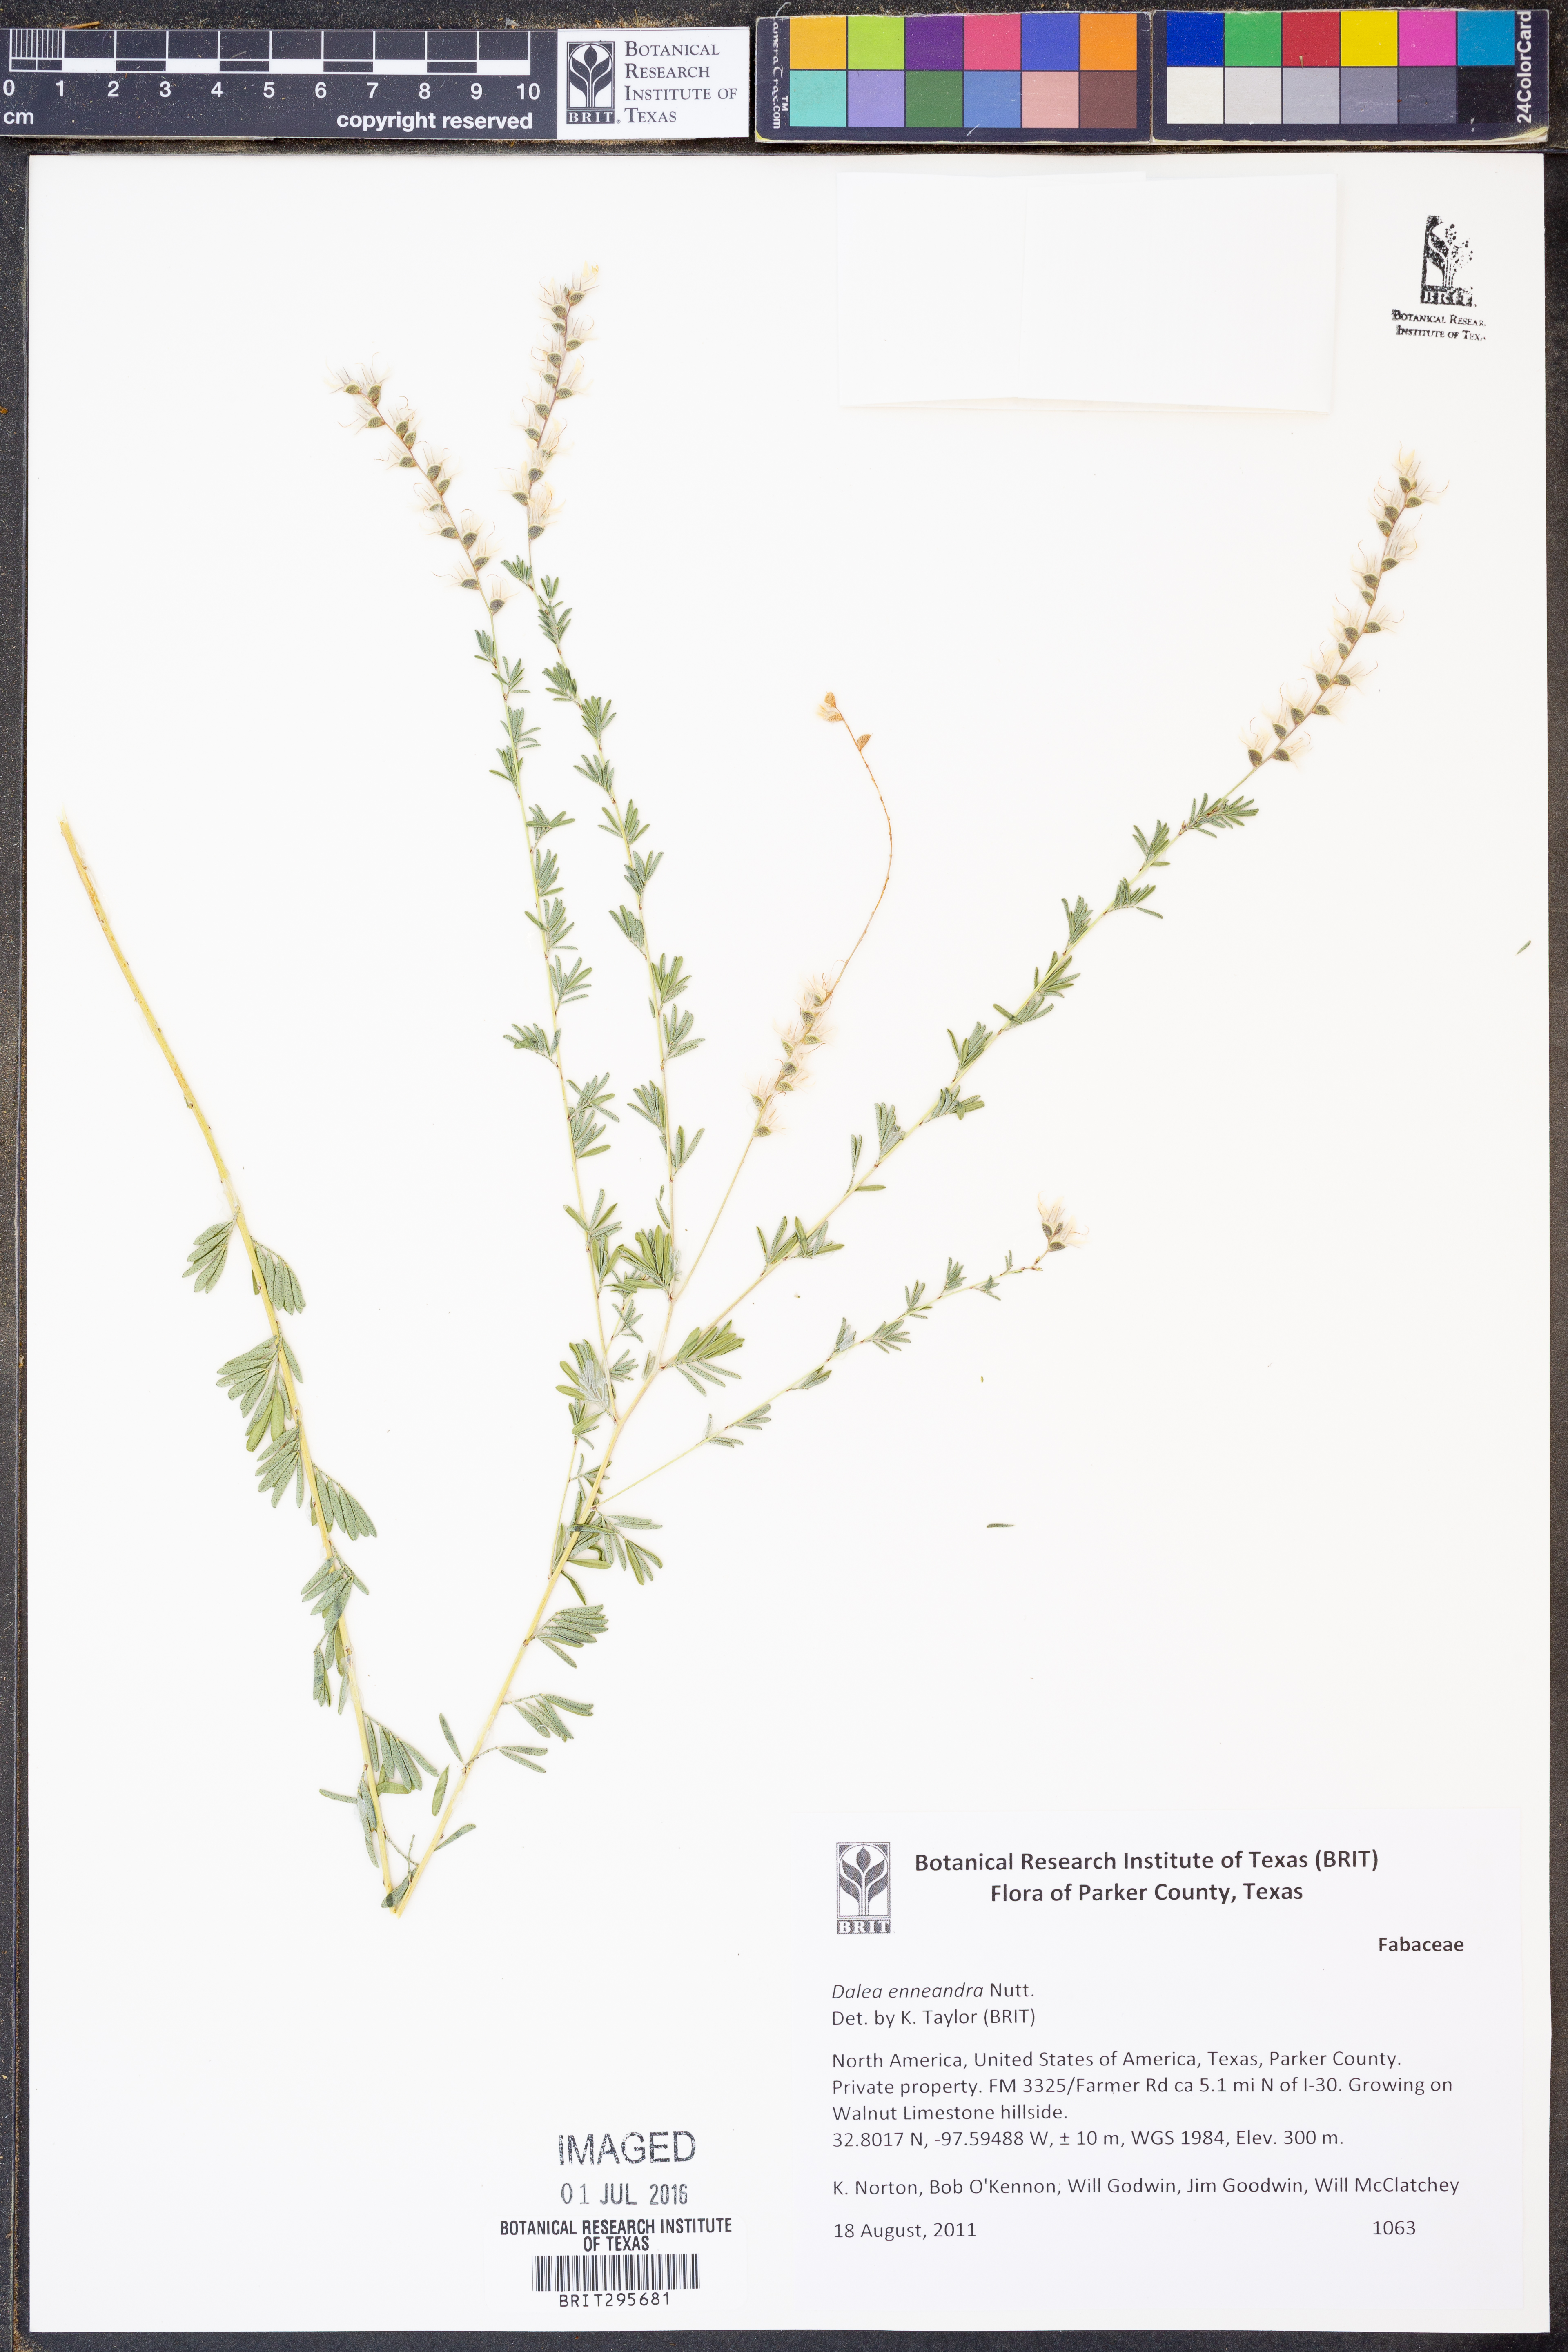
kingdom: Plantae
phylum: Tracheophyta
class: Magnoliopsida
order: Fabales
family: Fabaceae
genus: Dalea
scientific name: Dalea enneandra
